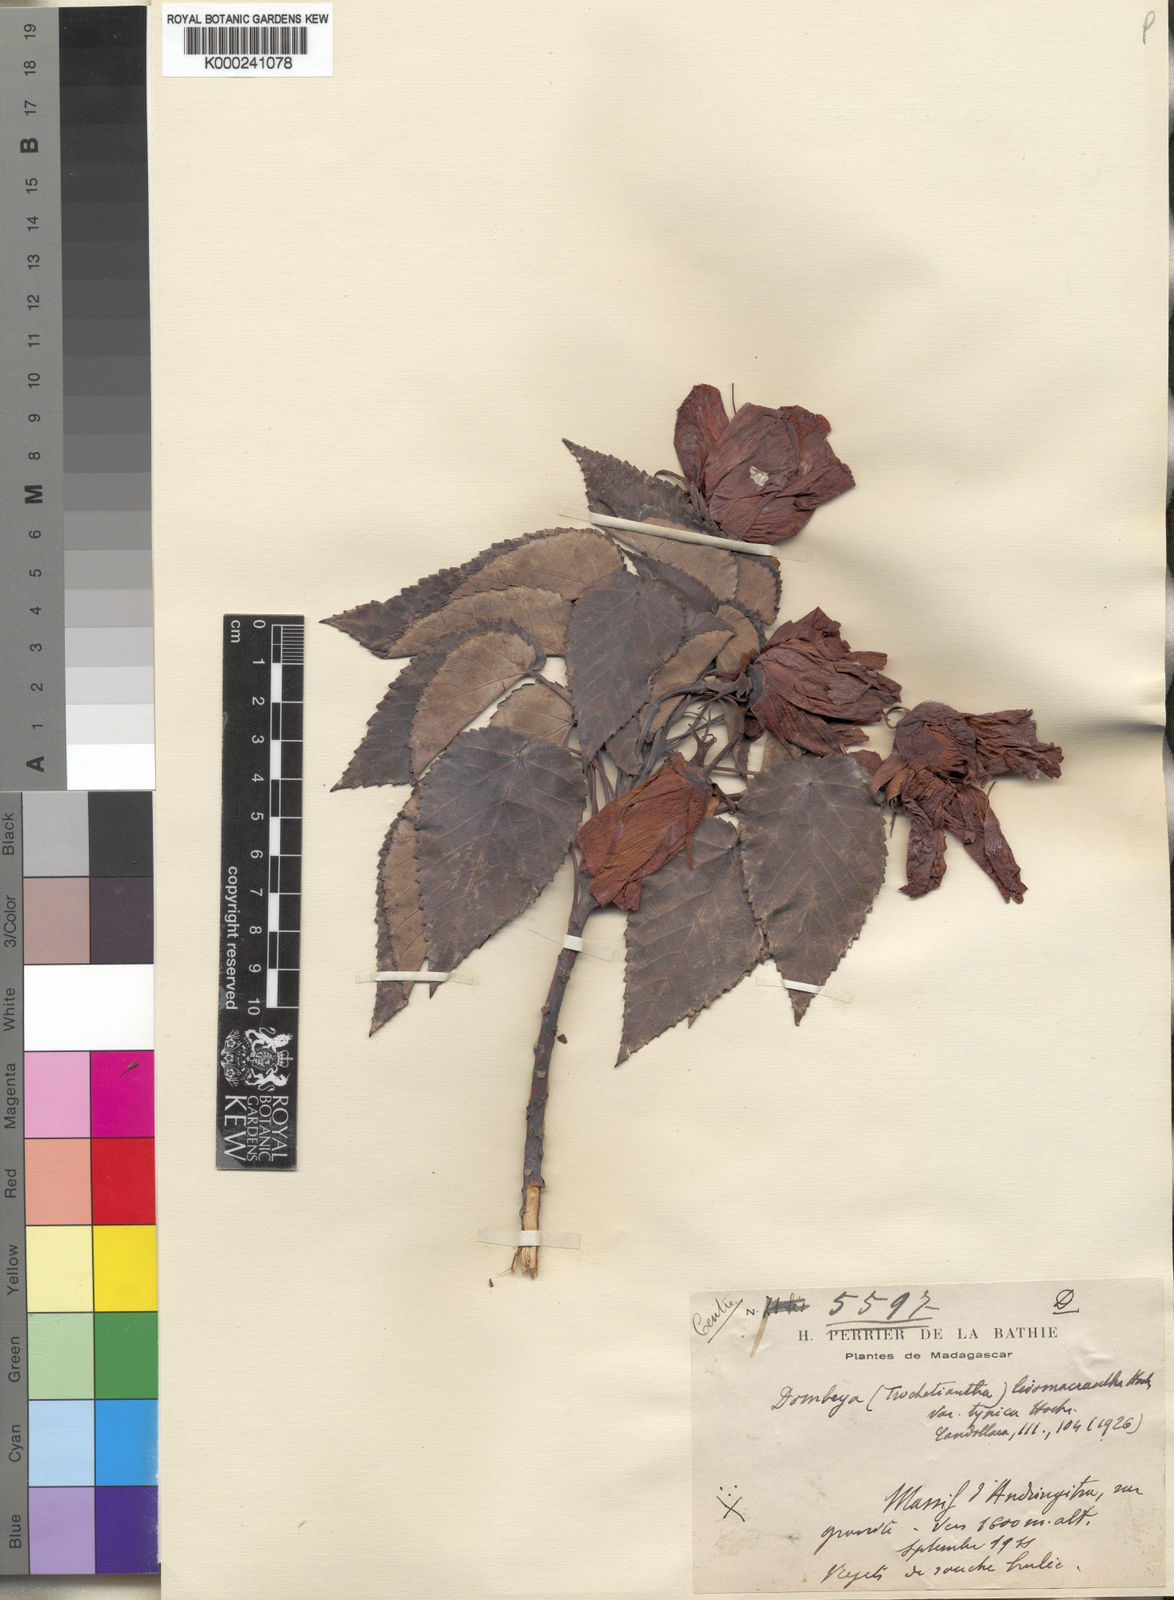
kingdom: Plantae
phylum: Tracheophyta
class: Magnoliopsida
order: Malvales
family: Malvaceae
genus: Andringitra
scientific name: Andringitra leiomacrantha
